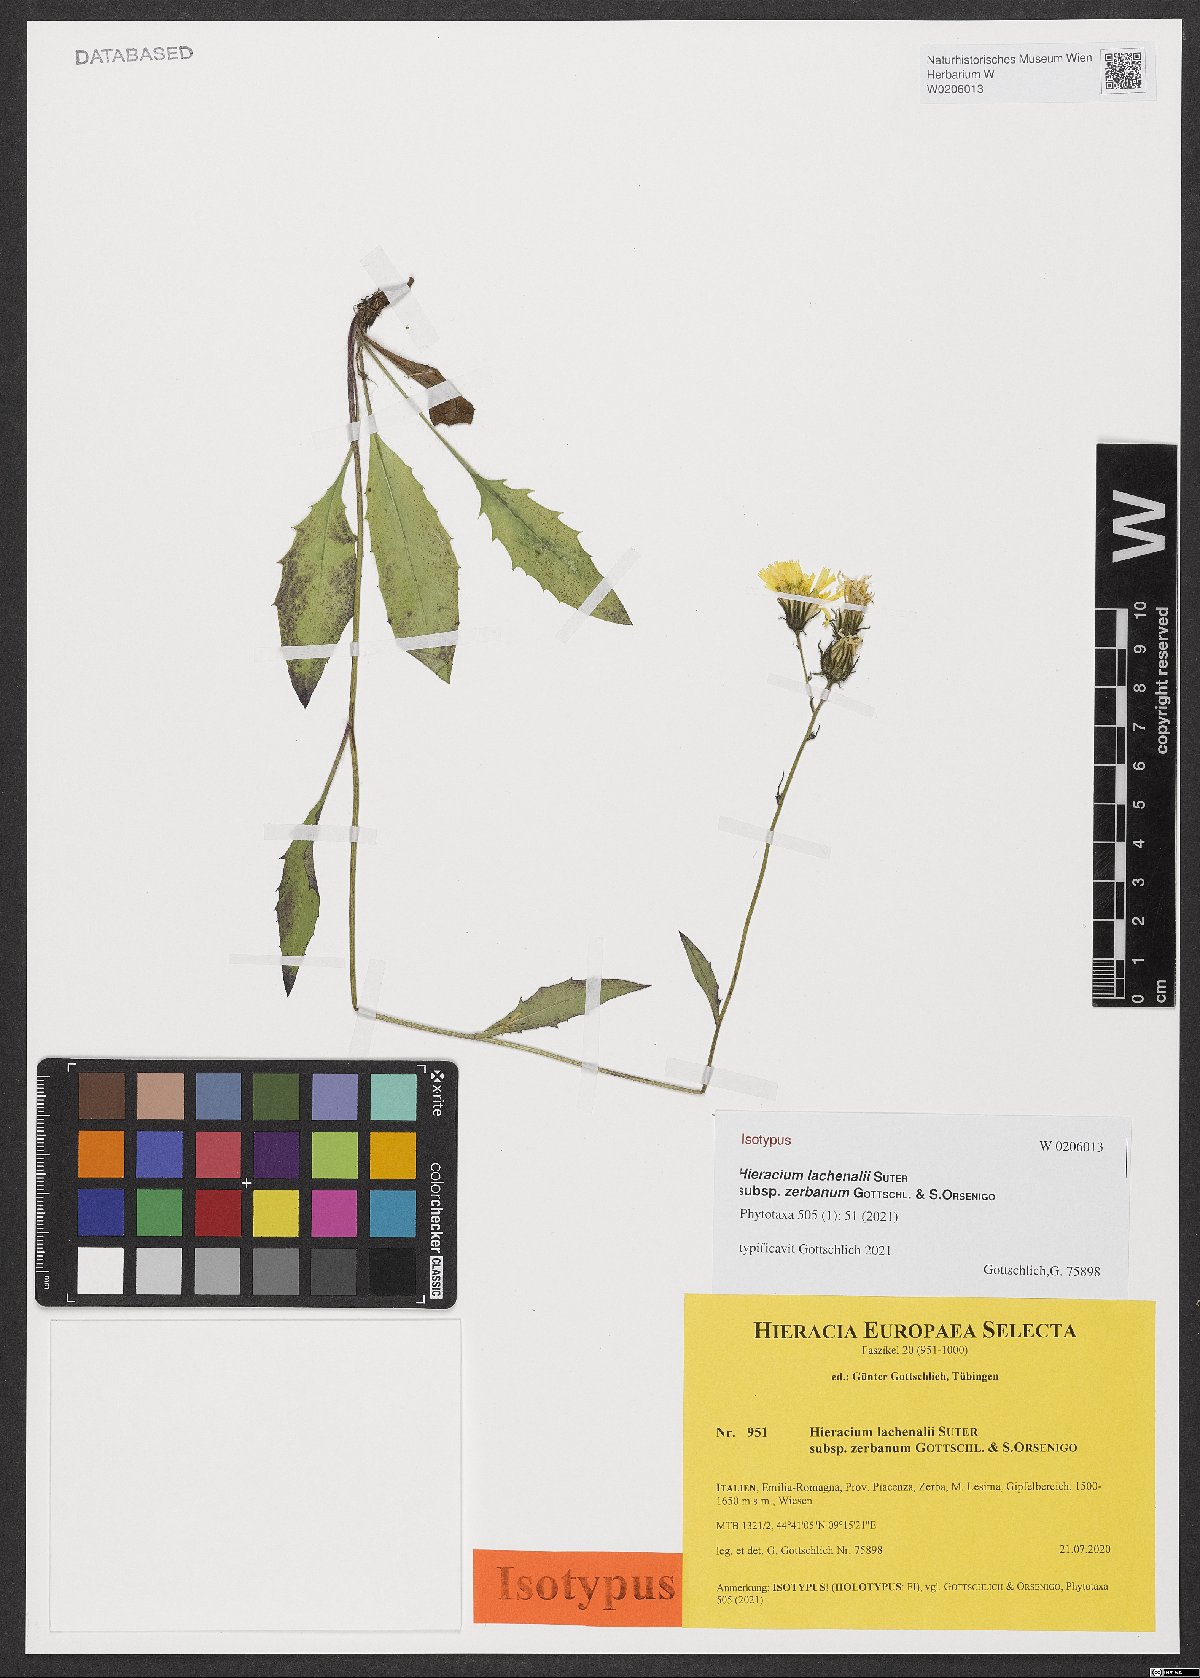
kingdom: Plantae
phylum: Tracheophyta
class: Magnoliopsida
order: Asterales
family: Asteraceae
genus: Hieracium
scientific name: Hieracium lachenalii
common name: Common hawkweed
